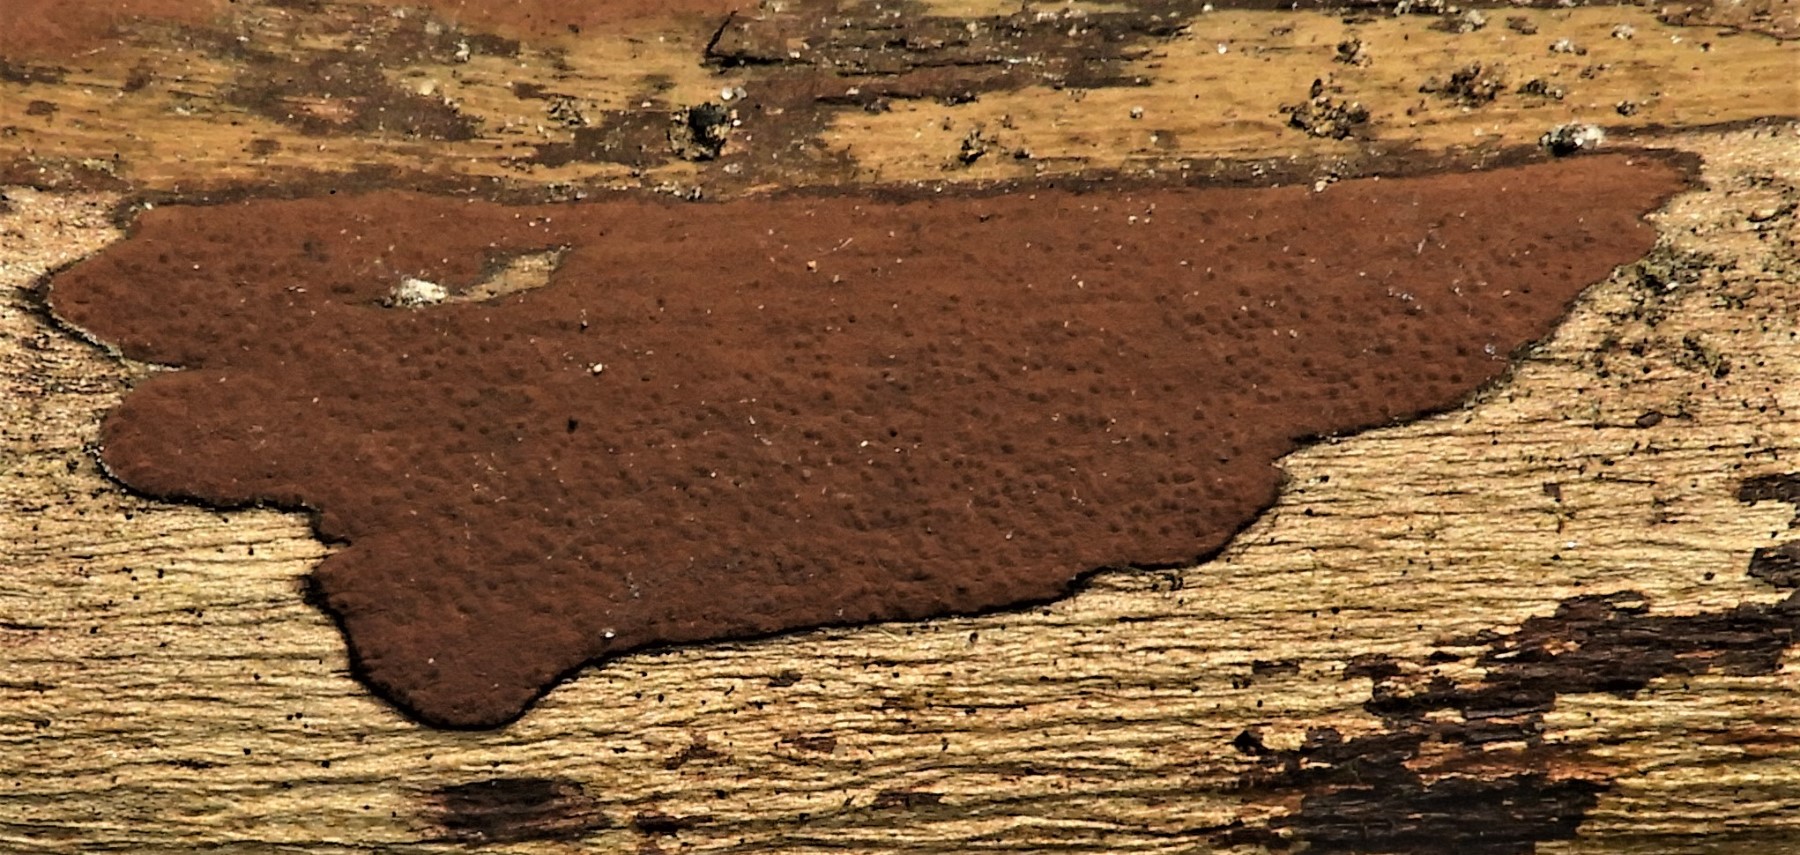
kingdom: Fungi
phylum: Ascomycota
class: Sordariomycetes
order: Xylariales
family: Hypoxylaceae
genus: Hypoxylon
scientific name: Hypoxylon petriniae
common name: nedsænket kulbær
